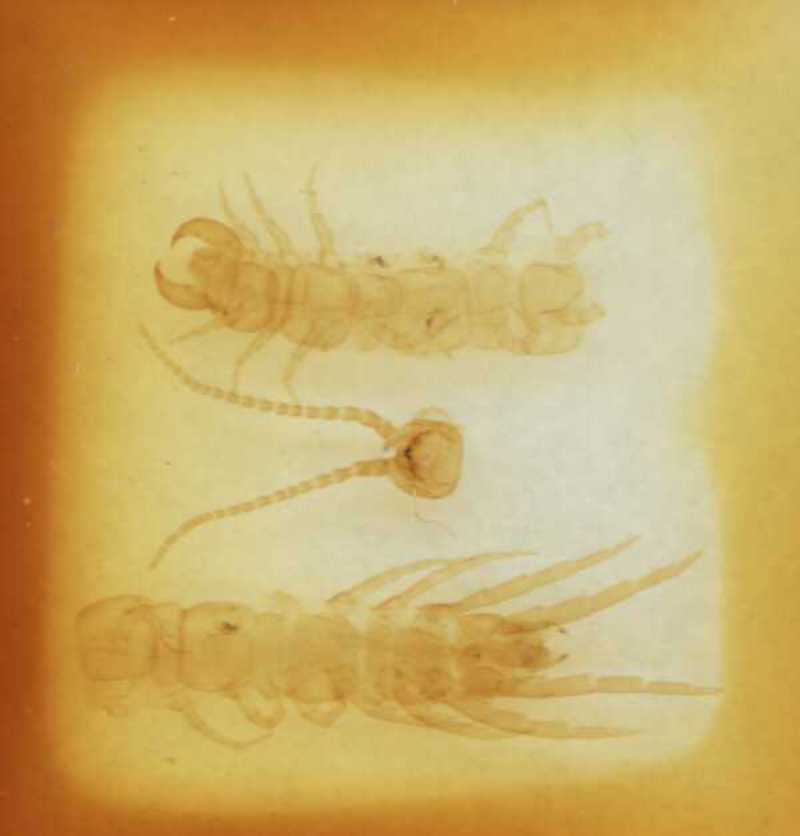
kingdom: Animalia
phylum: Arthropoda
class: Chilopoda
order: Lithobiomorpha
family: Lithobiidae
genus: Hessebius
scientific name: Hessebius barbipes
